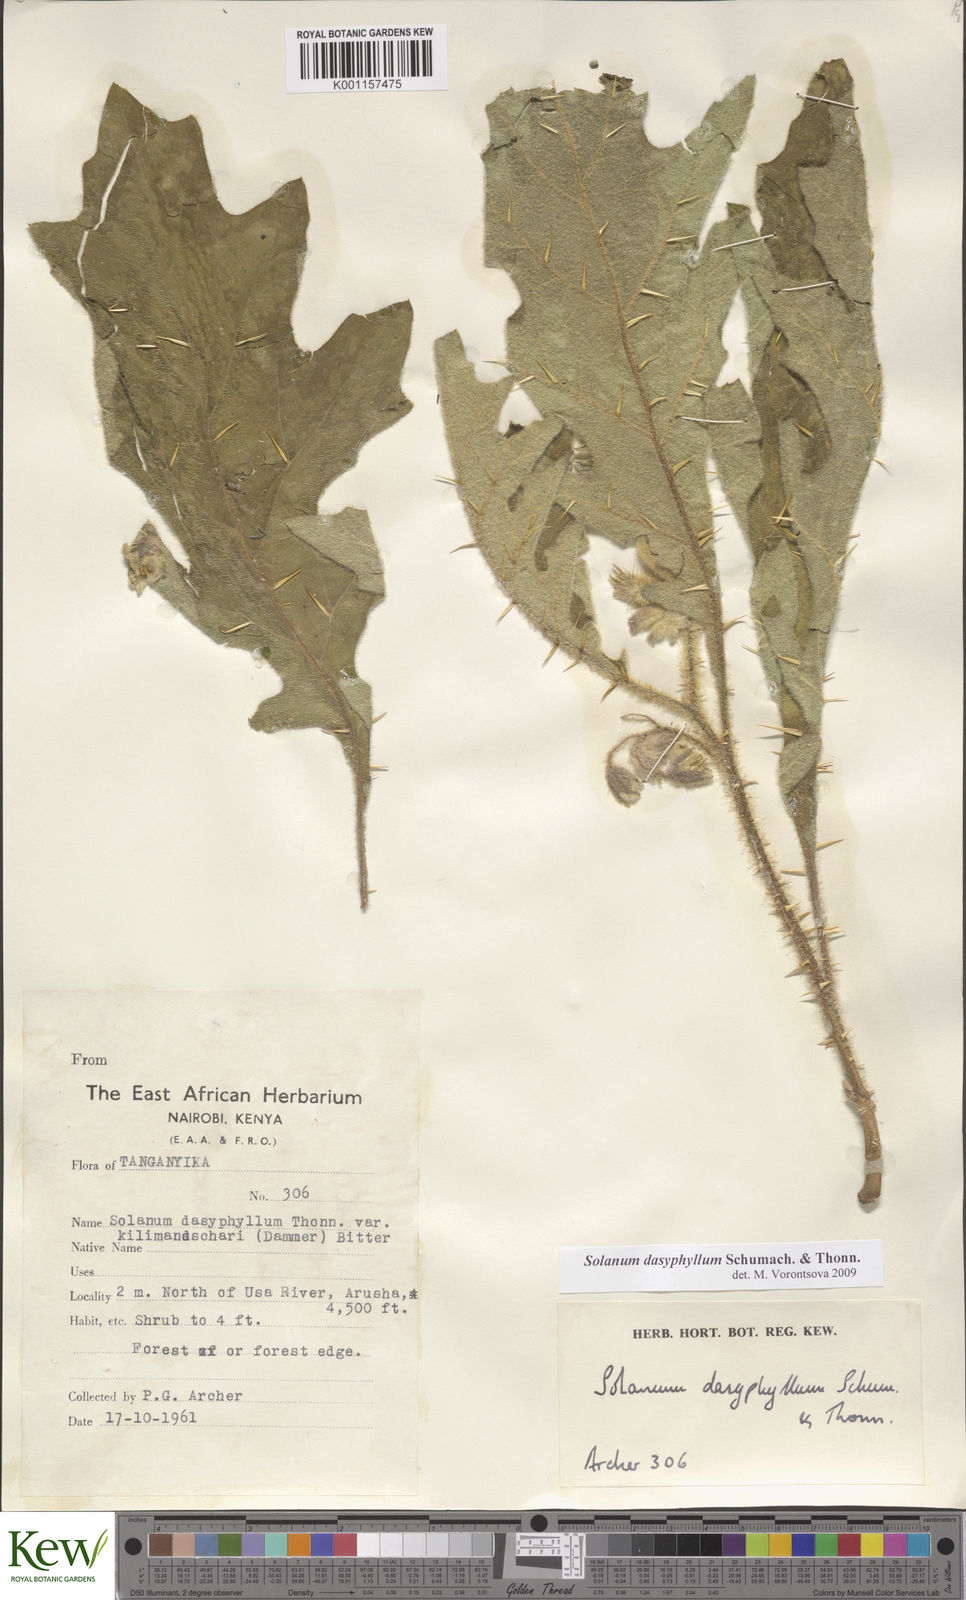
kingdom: Plantae
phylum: Tracheophyta
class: Magnoliopsida
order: Solanales
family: Solanaceae
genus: Solanum
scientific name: Solanum dasyphyllum
